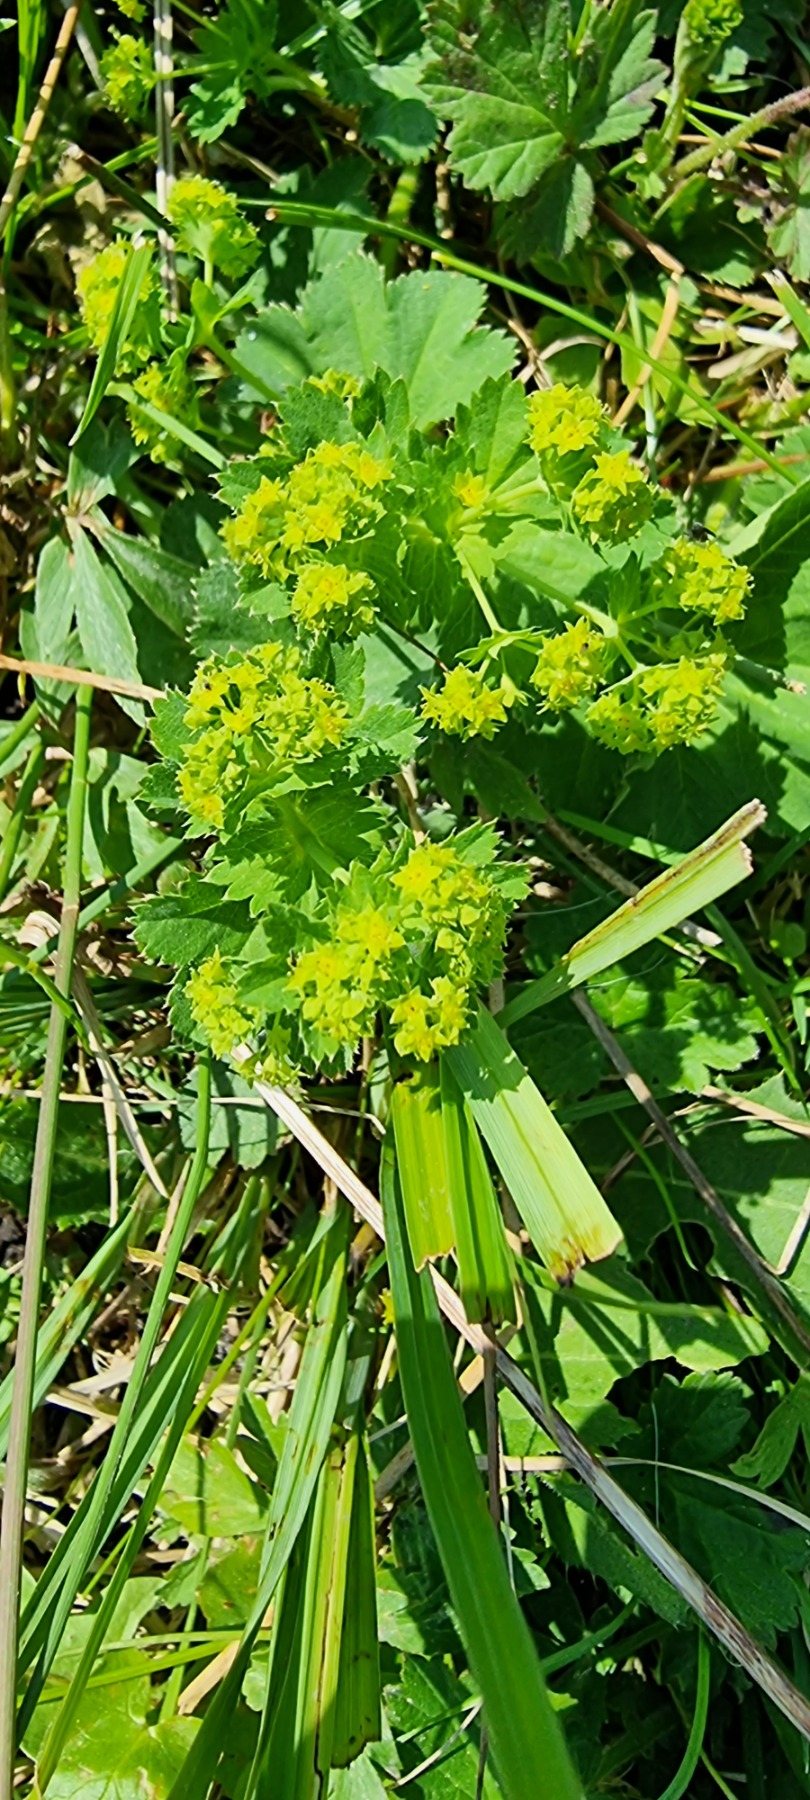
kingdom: Plantae
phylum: Tracheophyta
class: Magnoliopsida
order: Rosales
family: Rosaceae
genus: Alchemilla
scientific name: Alchemilla xanthochlora
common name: Gulgrøn løvefod
